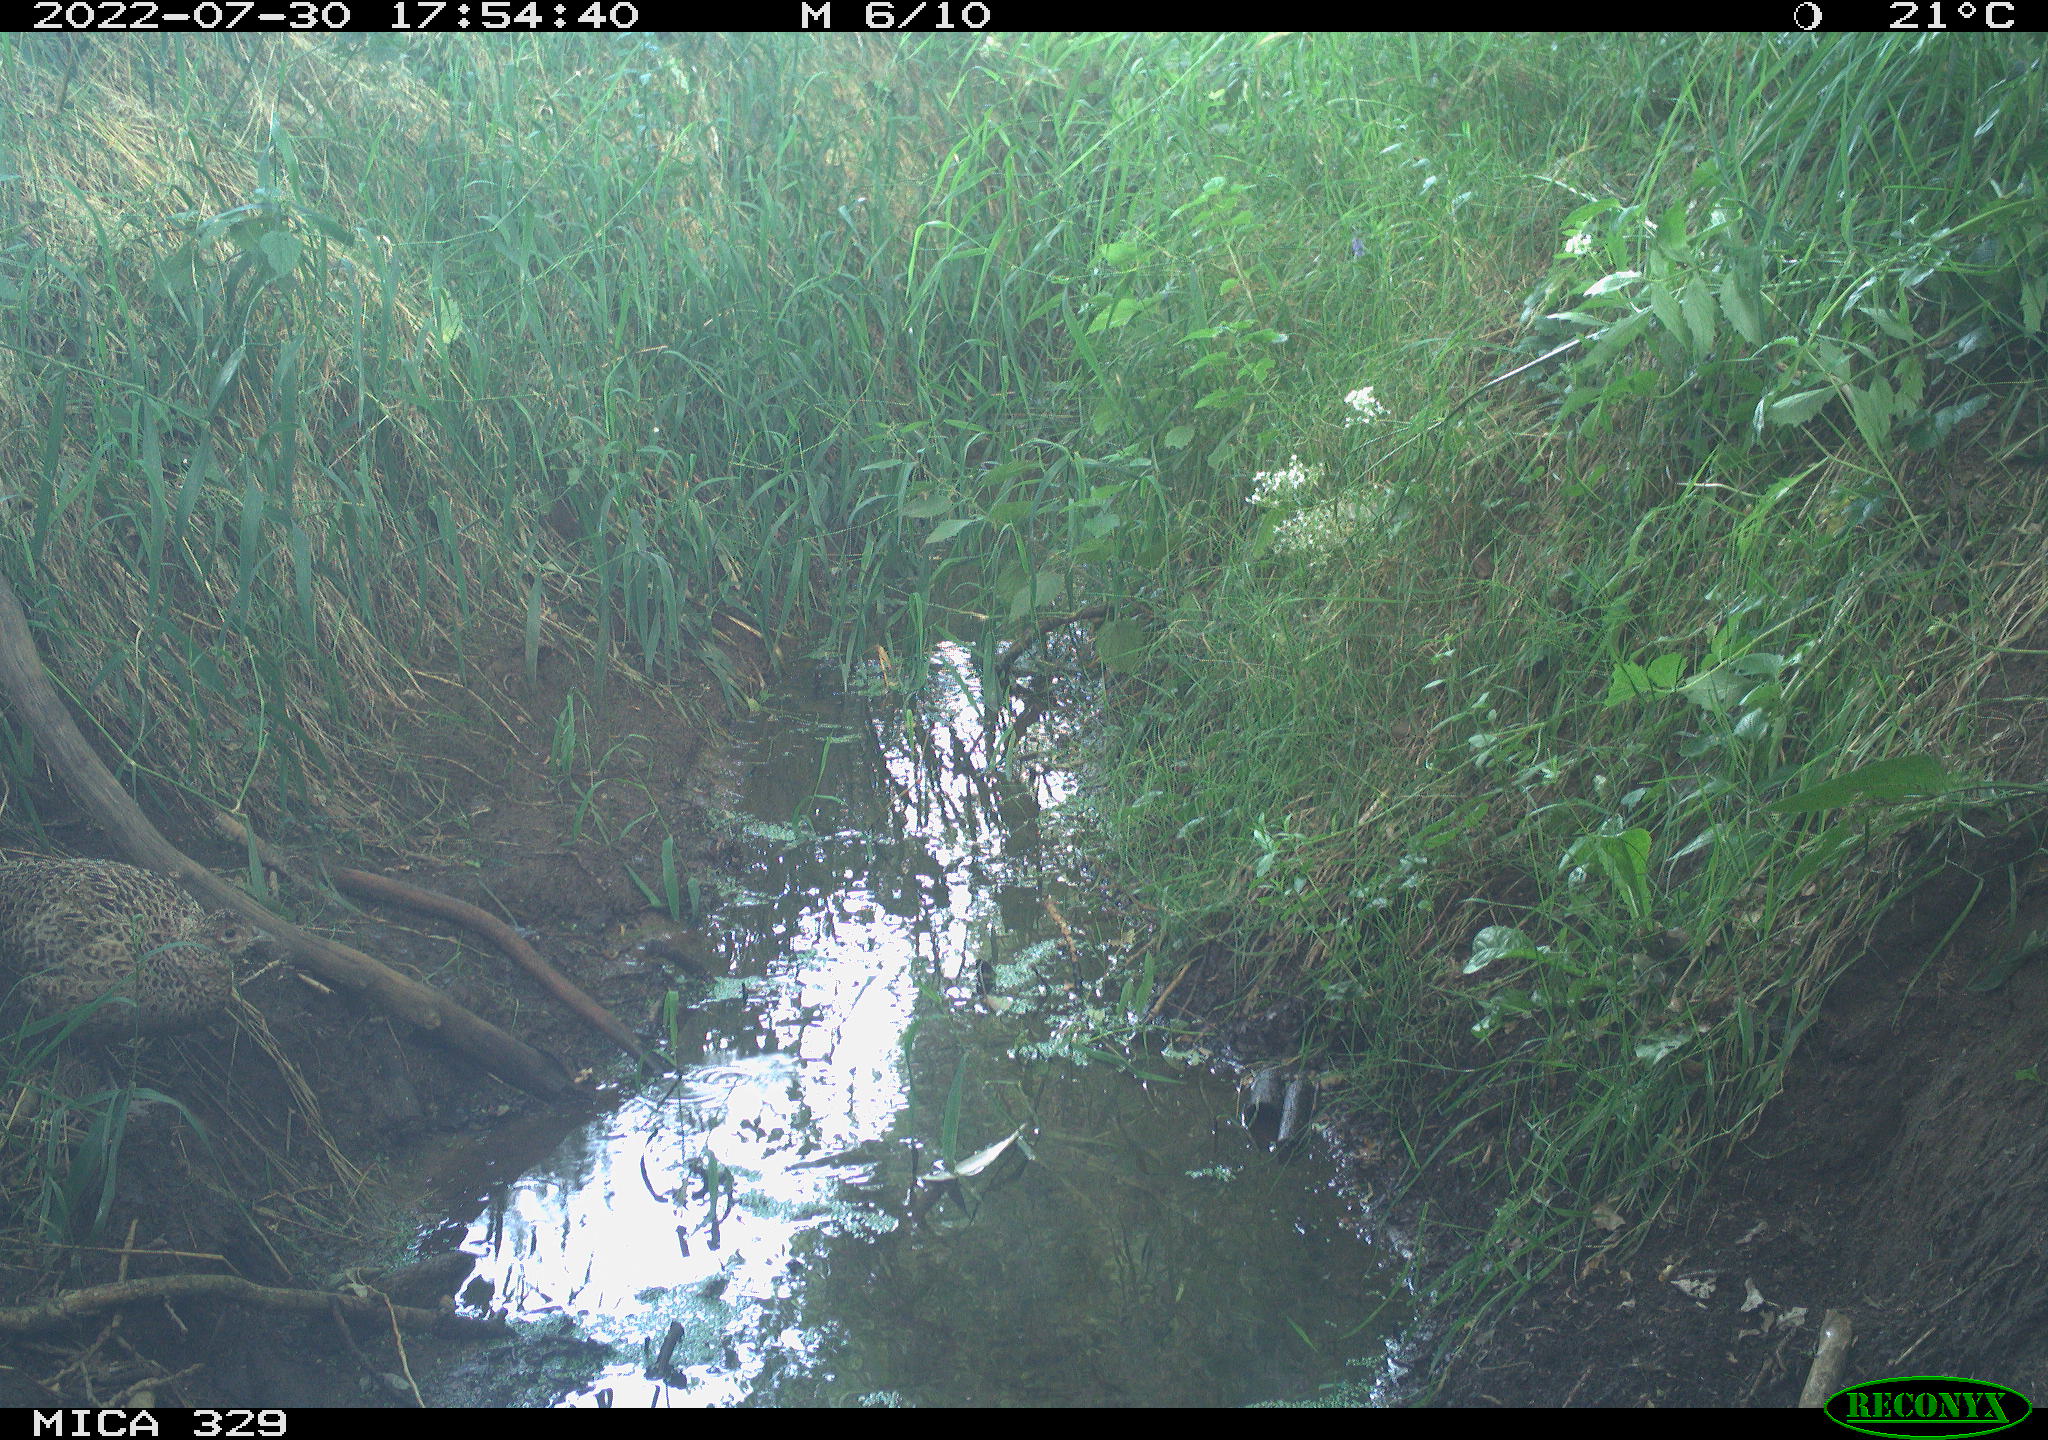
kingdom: Animalia
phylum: Chordata
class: Aves
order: Galliformes
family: Phasianidae
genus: Phasianus
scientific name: Phasianus colchicus
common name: Common pheasant
